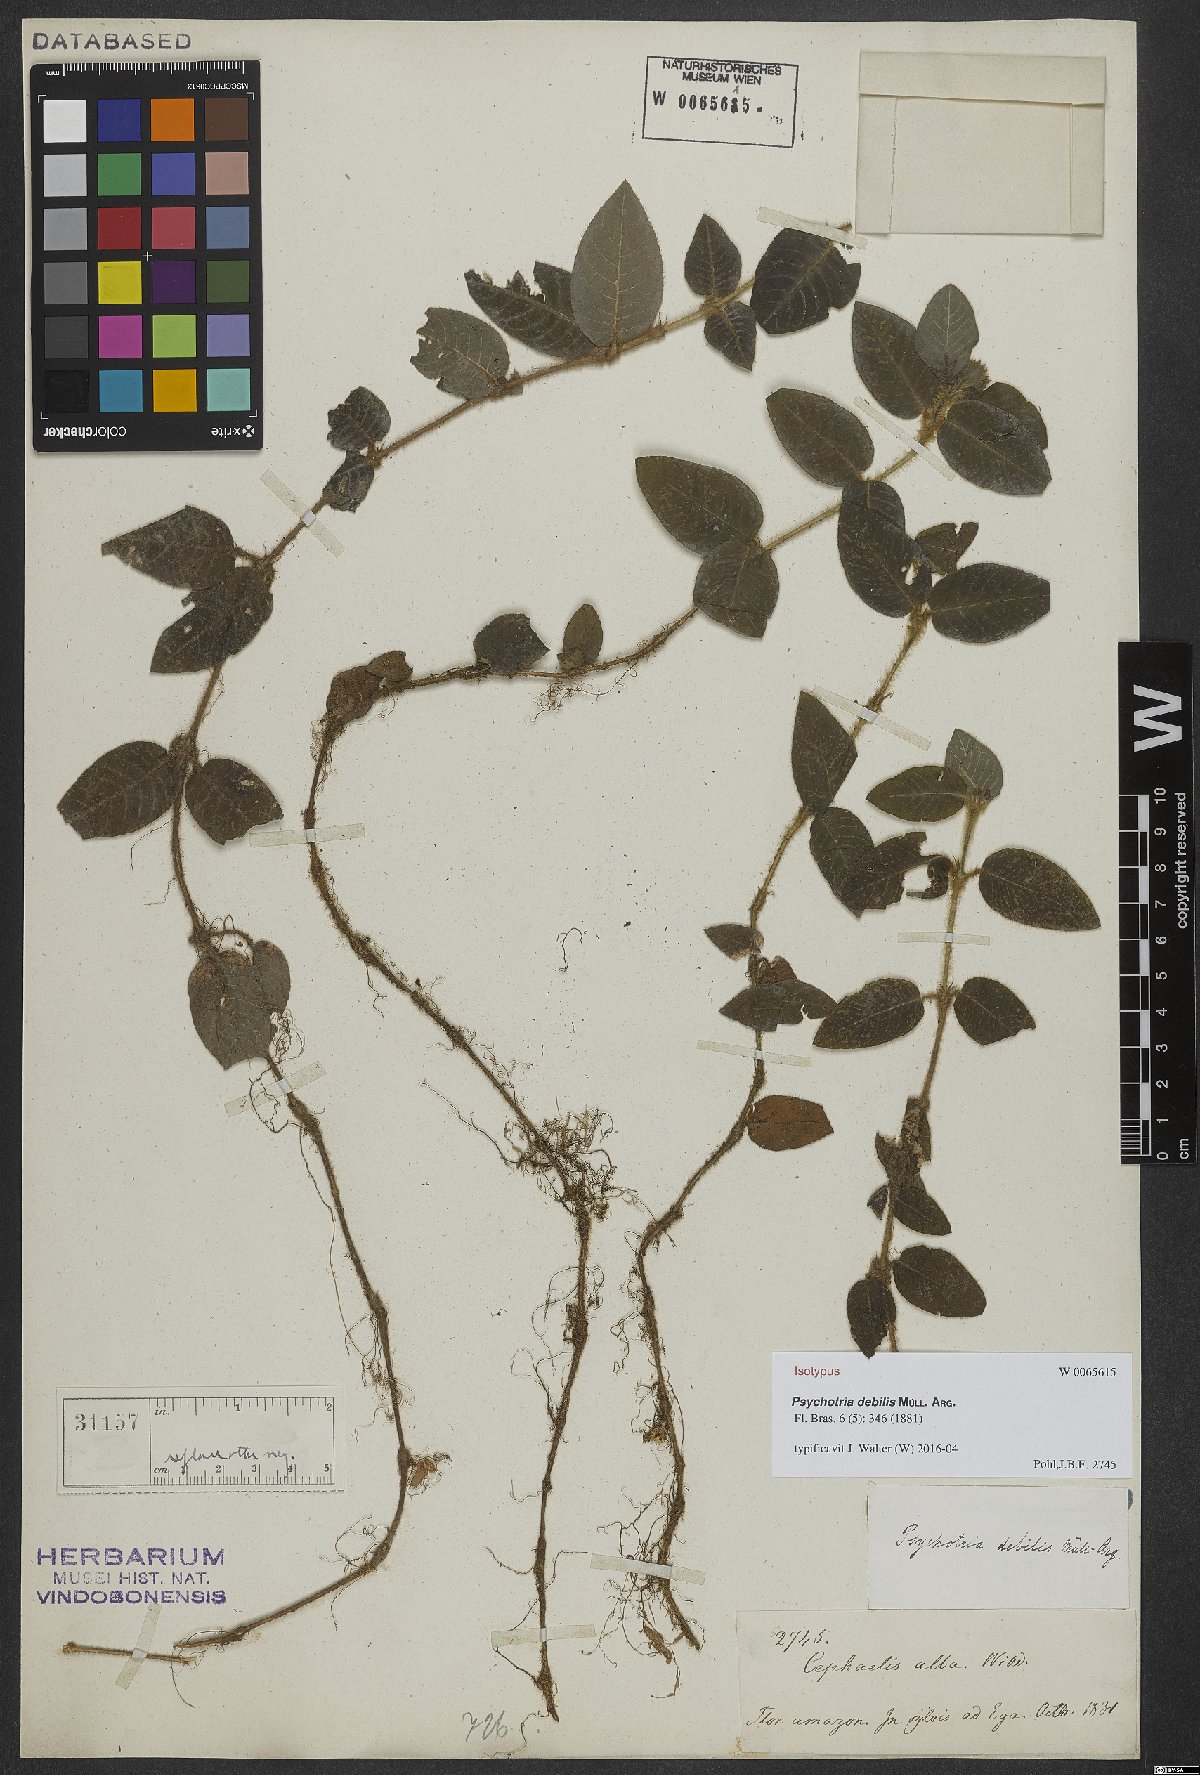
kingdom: Plantae
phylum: Tracheophyta
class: Magnoliopsida
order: Gentianales
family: Rubiaceae
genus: Palicourea
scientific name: Palicourea debilis
